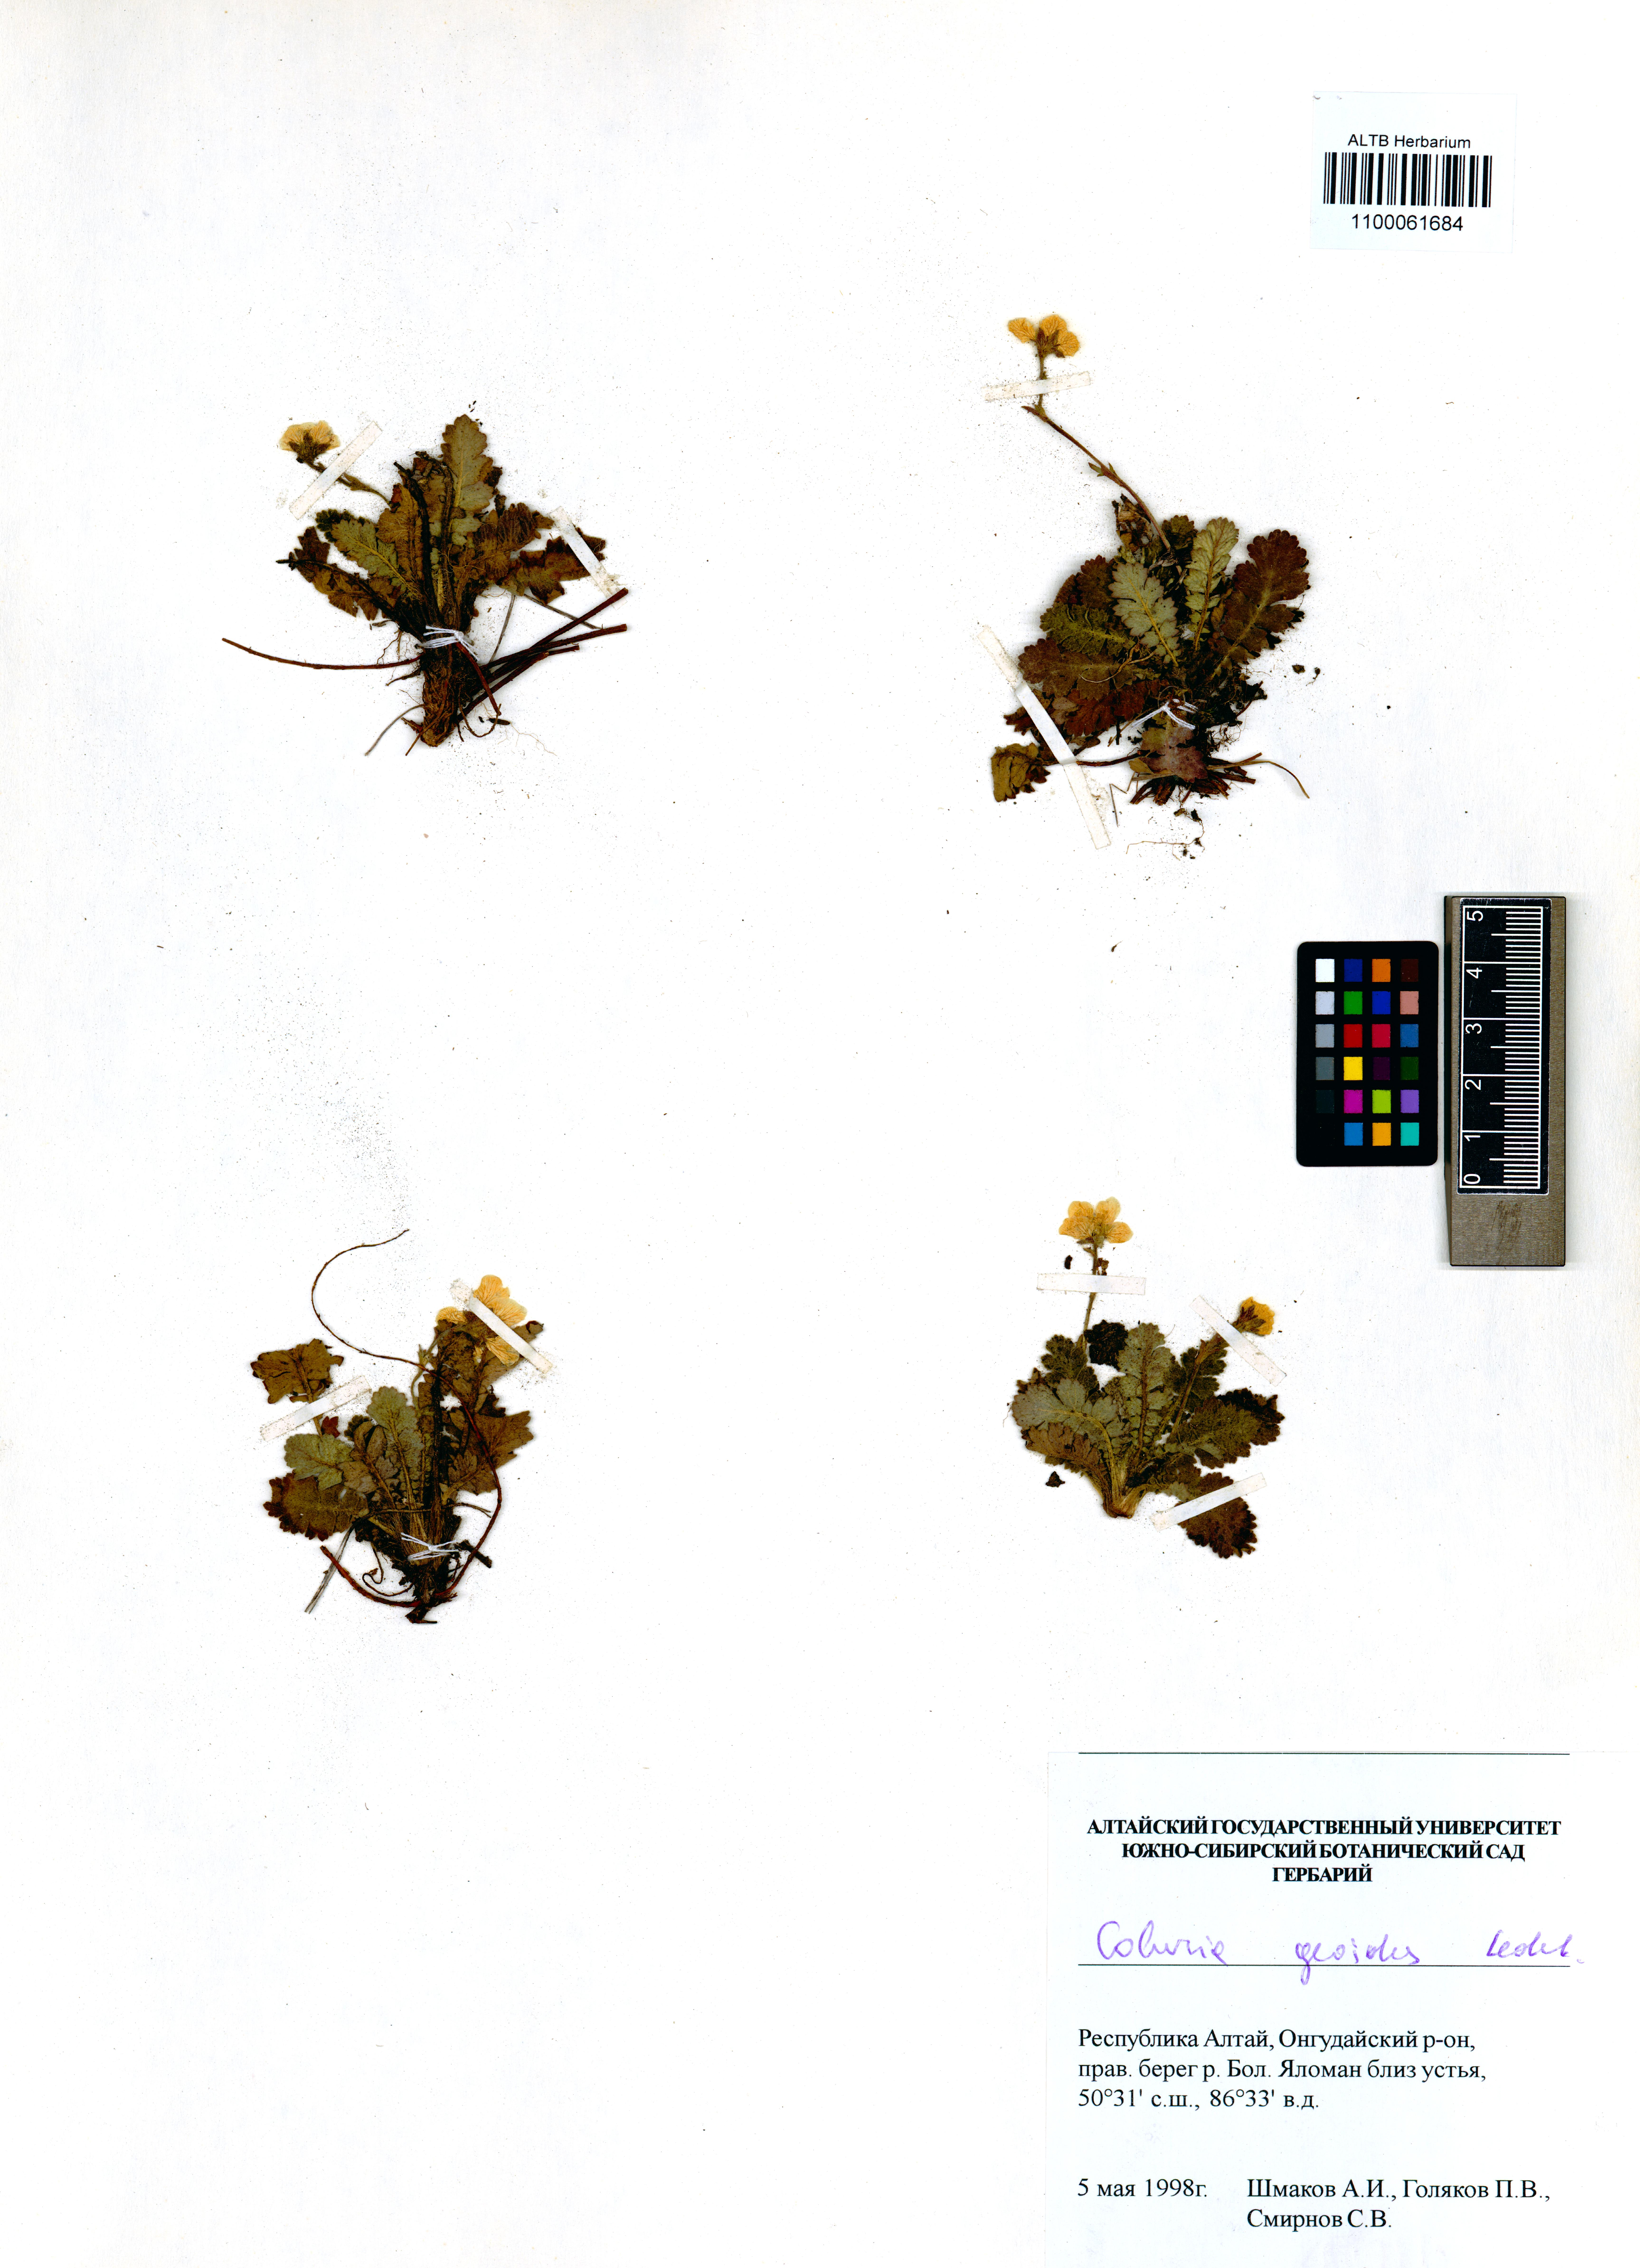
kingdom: Plantae
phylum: Tracheophyta
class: Magnoliopsida
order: Rosales
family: Rosaceae
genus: Geum
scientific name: Geum geoides
